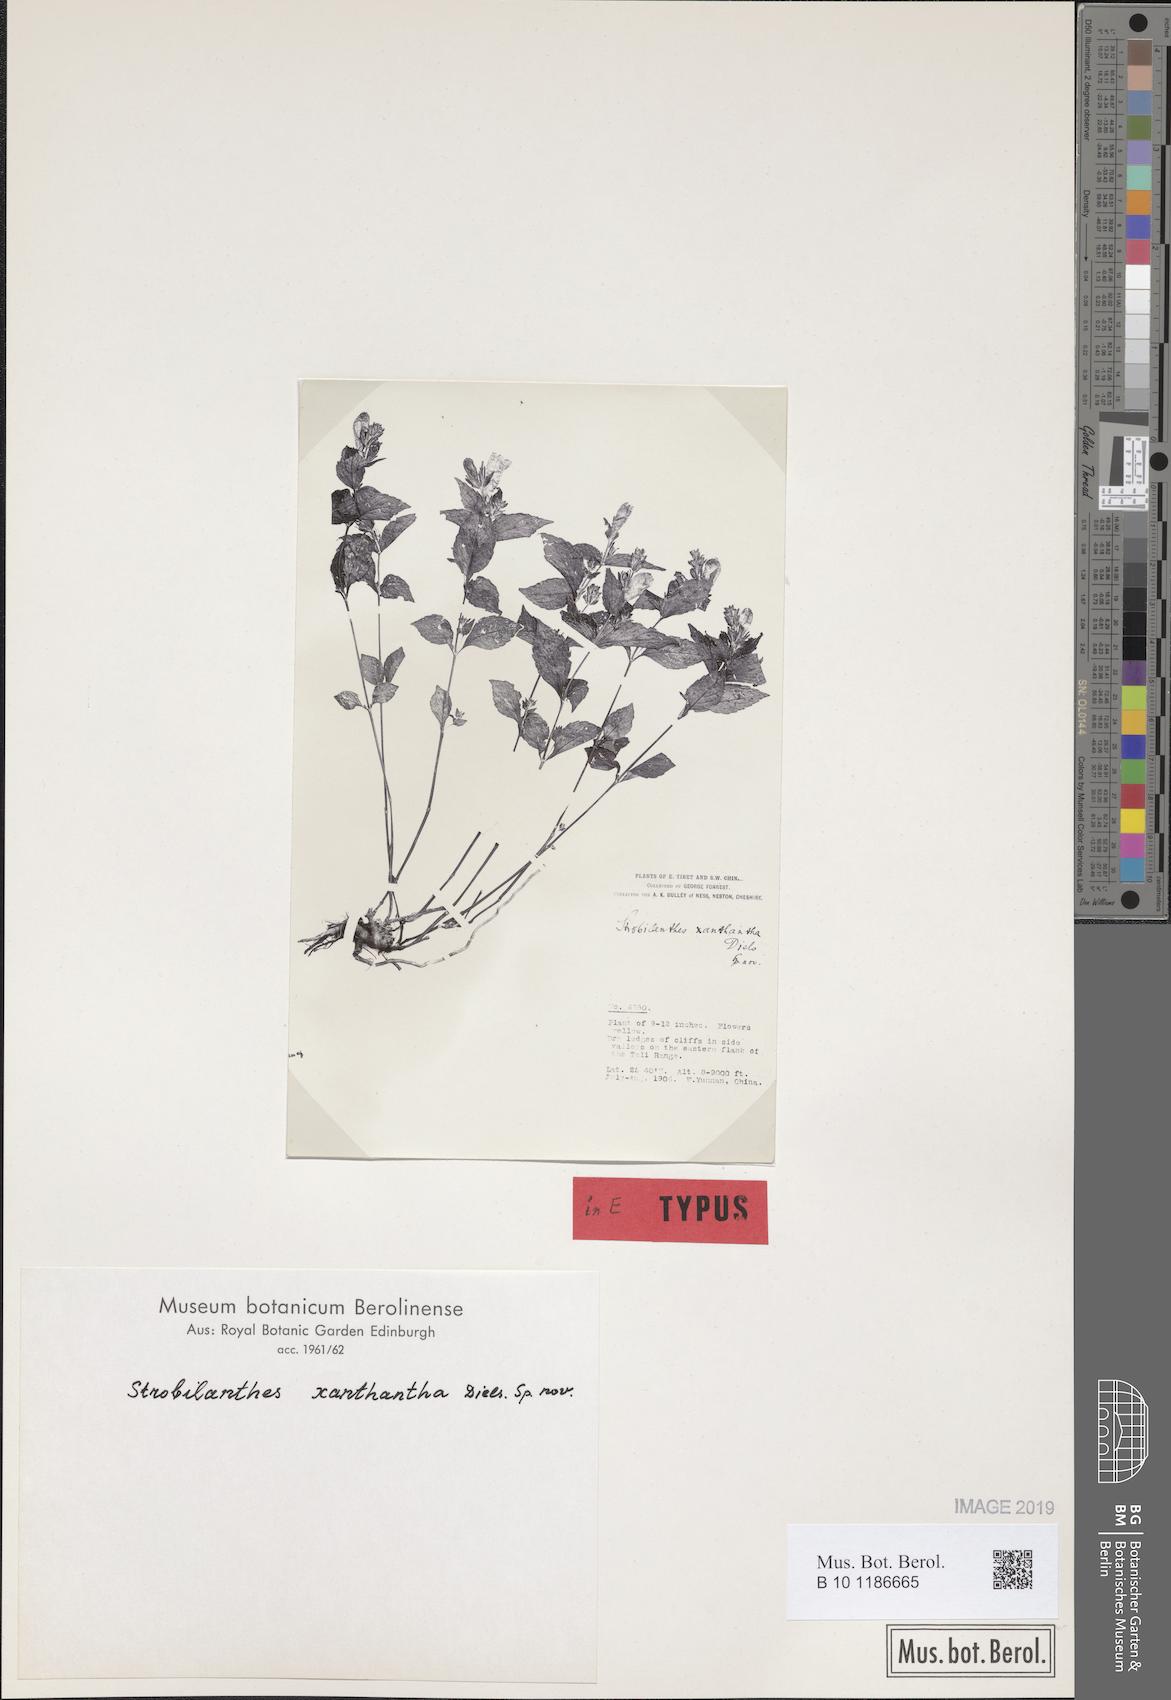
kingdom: Plantae
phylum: Tracheophyta
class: Magnoliopsida
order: Lamiales
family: Acanthaceae
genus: Strobilanthes
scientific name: Strobilanthes lachenensis
